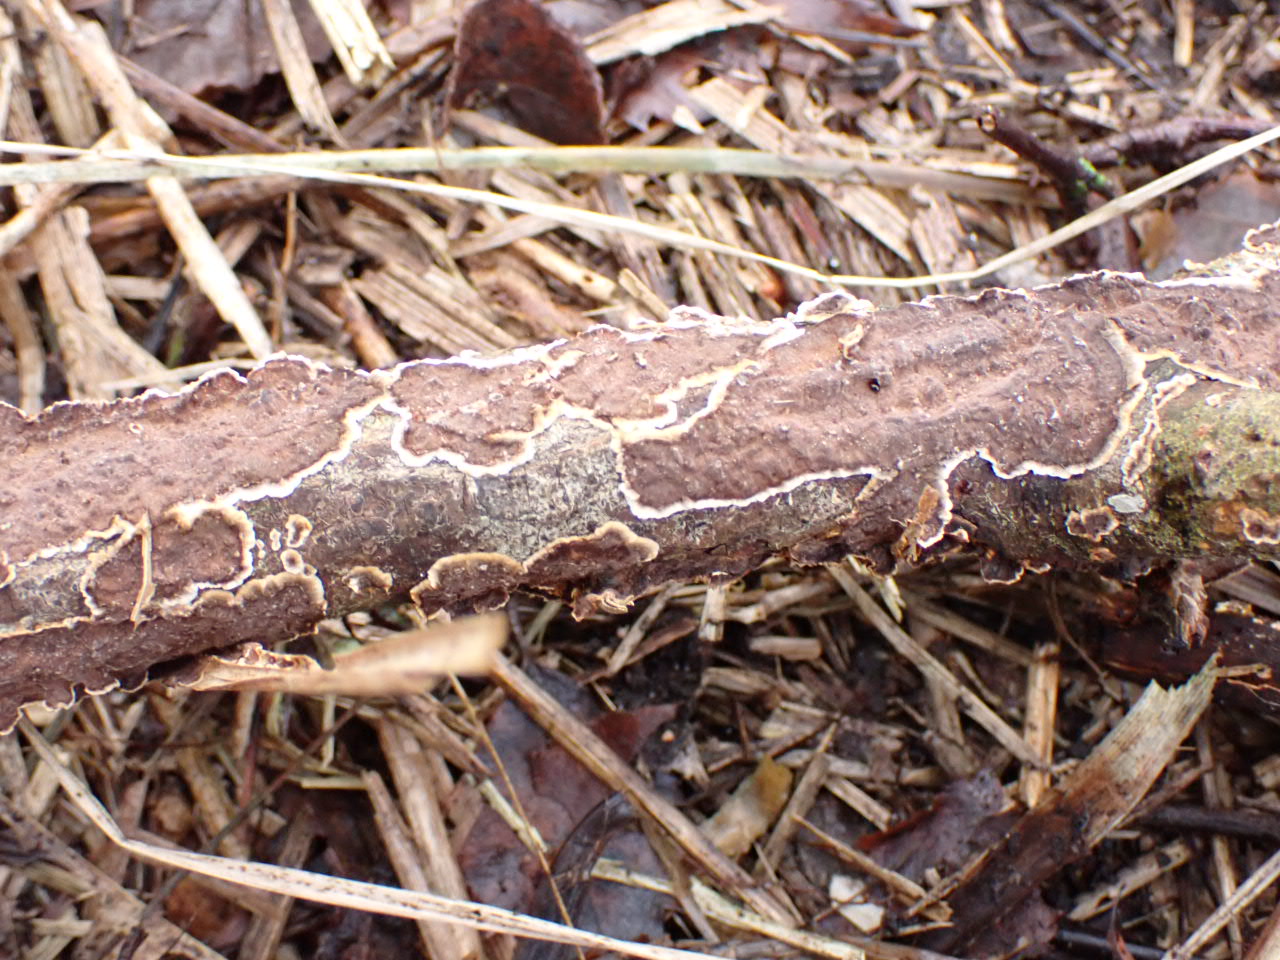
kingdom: Fungi
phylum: Basidiomycota
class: Agaricomycetes
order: Hymenochaetales
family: Hymenochaetaceae
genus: Hydnoporia
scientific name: Hydnoporia tabacina
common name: tobaksbrun ruslædersvamp
